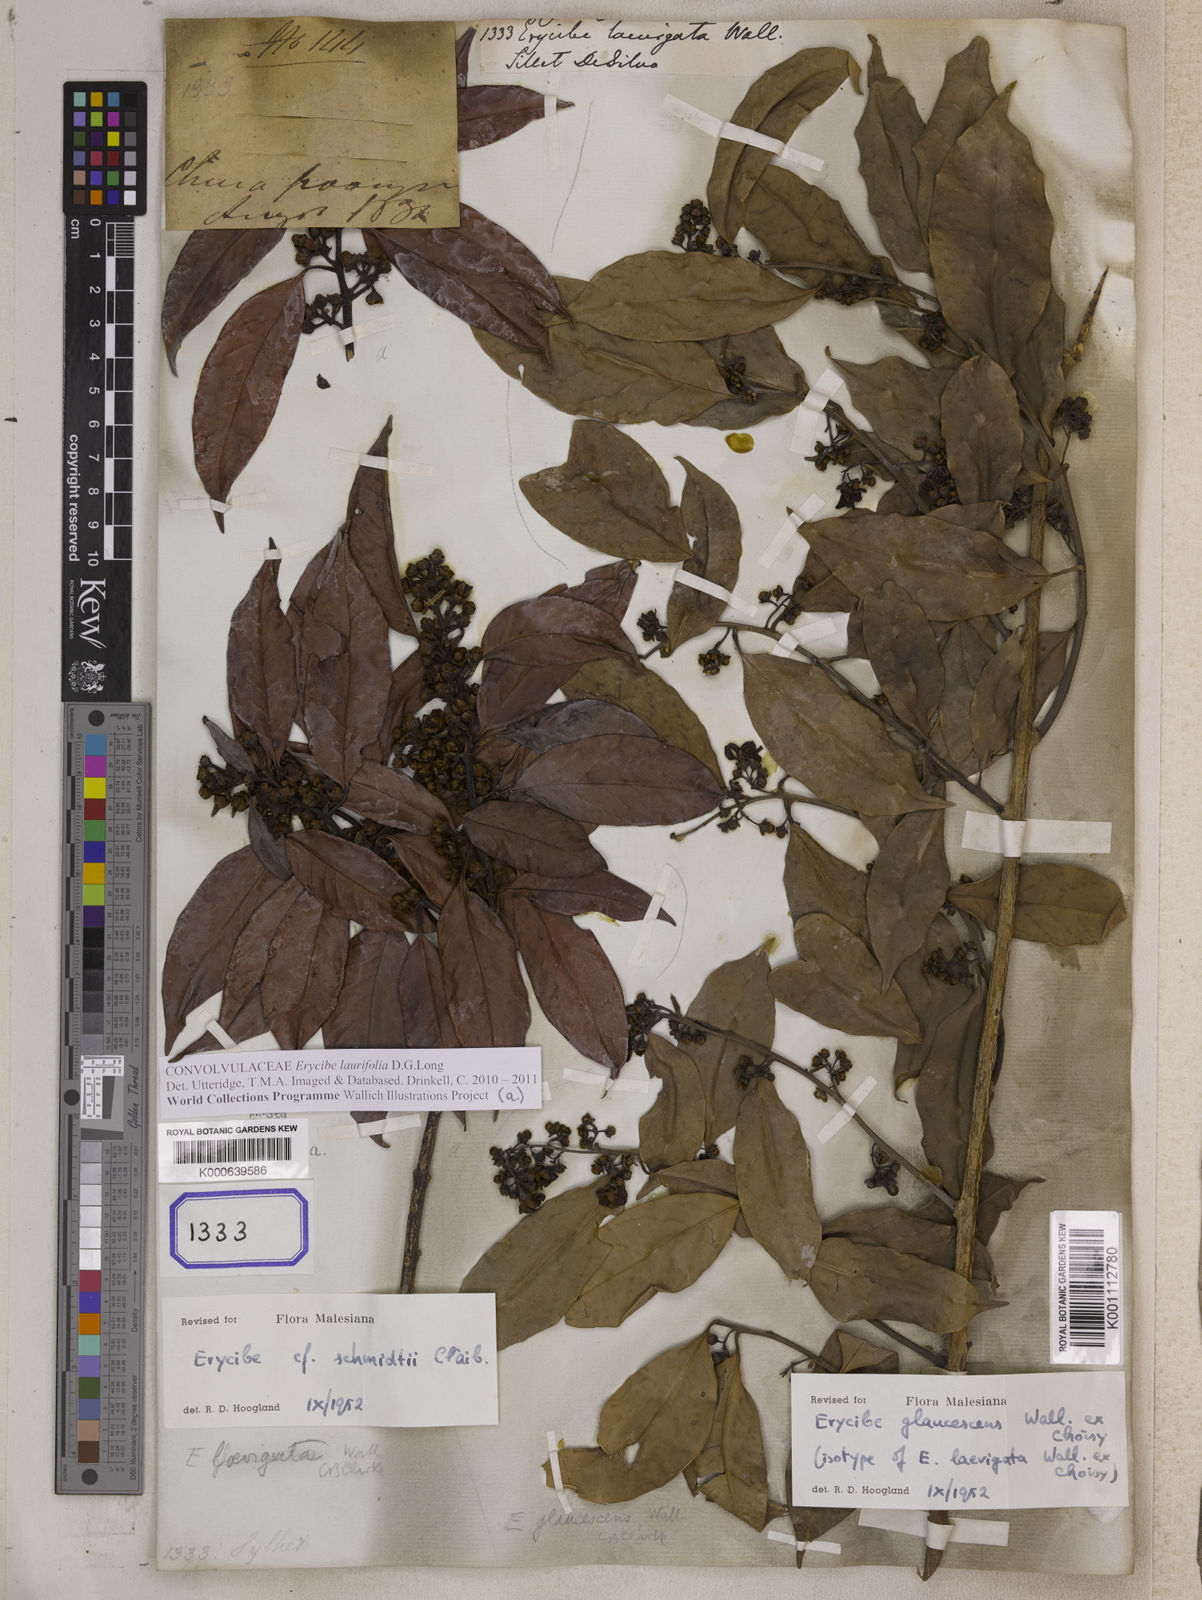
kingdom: Plantae
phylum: Tracheophyta
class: Magnoliopsida
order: Solanales
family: Convolvulaceae
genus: Erycibe
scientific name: Erycibe
